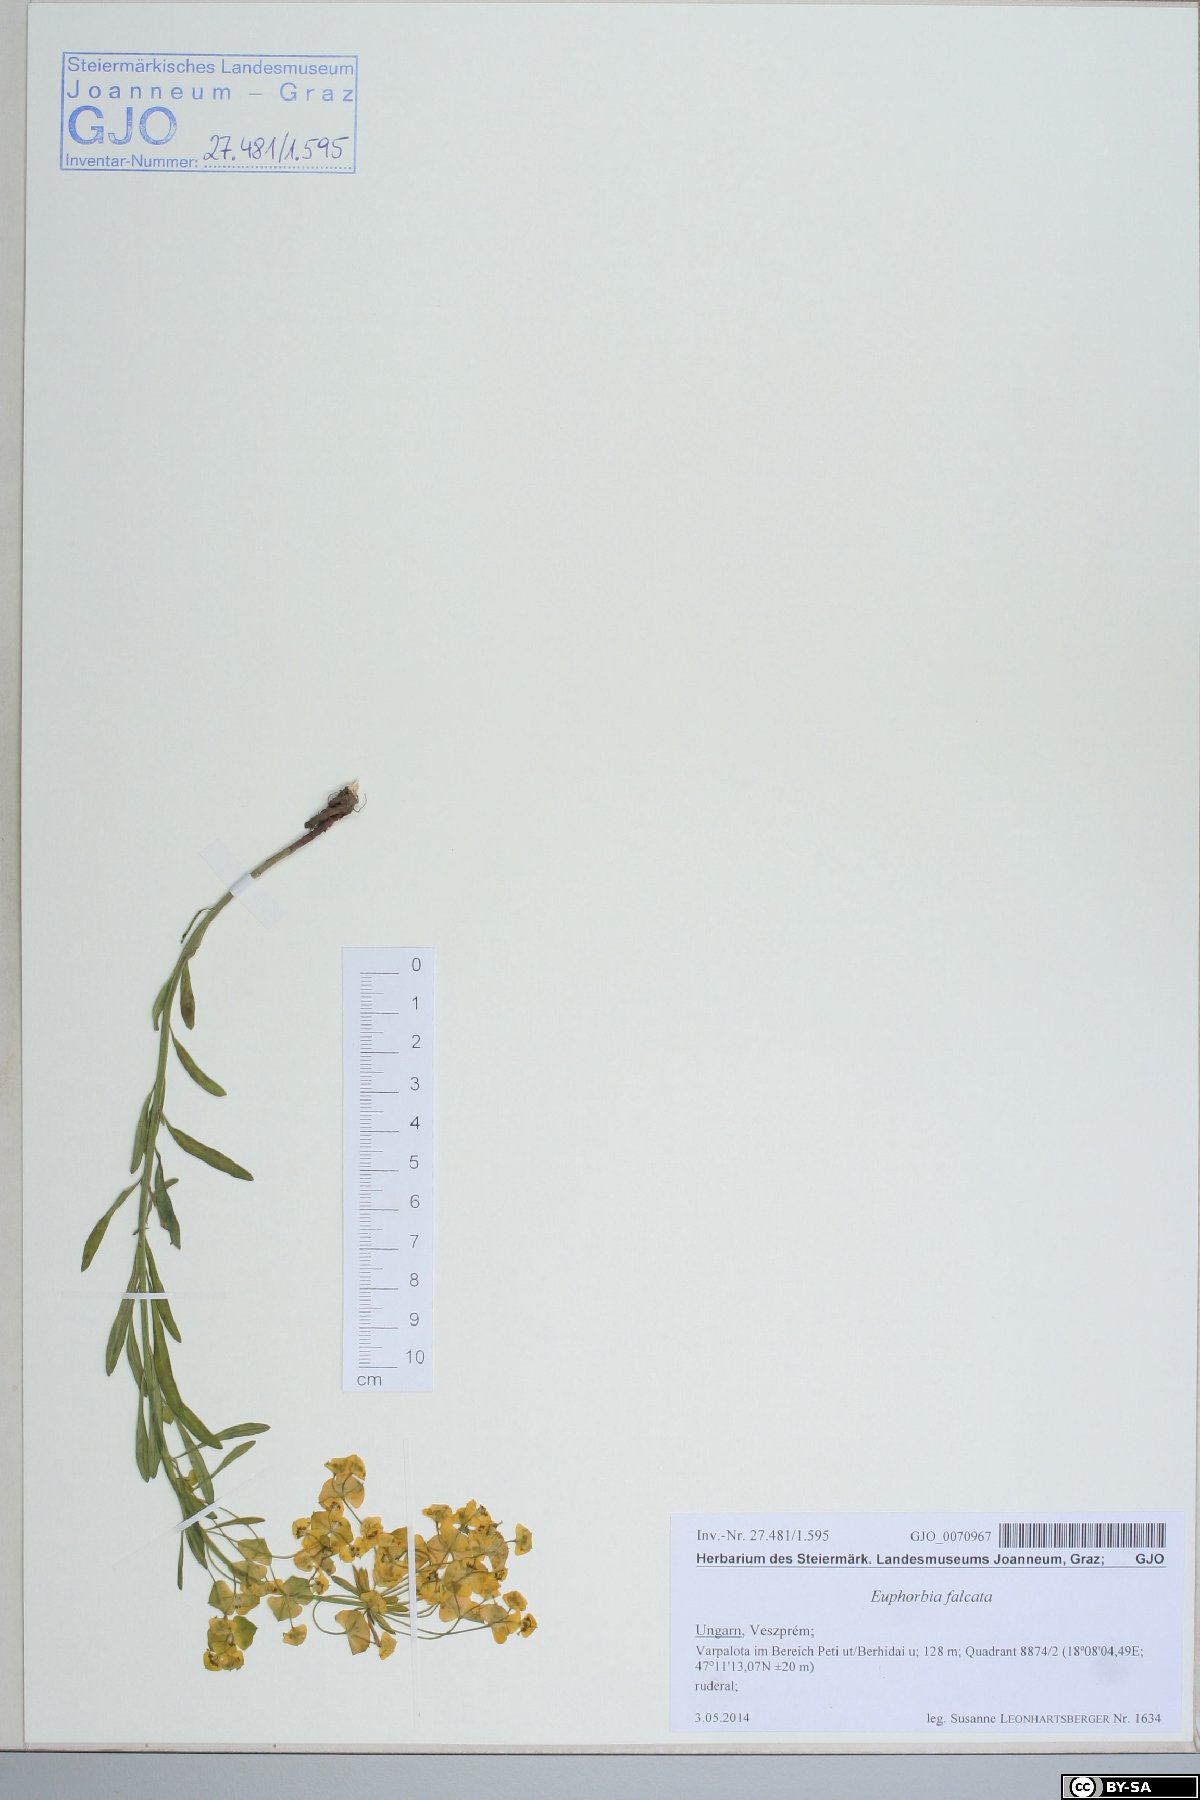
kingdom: Plantae
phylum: Tracheophyta
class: Magnoliopsida
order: Malpighiales
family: Euphorbiaceae
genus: Euphorbia
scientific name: Euphorbia falcata
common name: Sickle spurge
